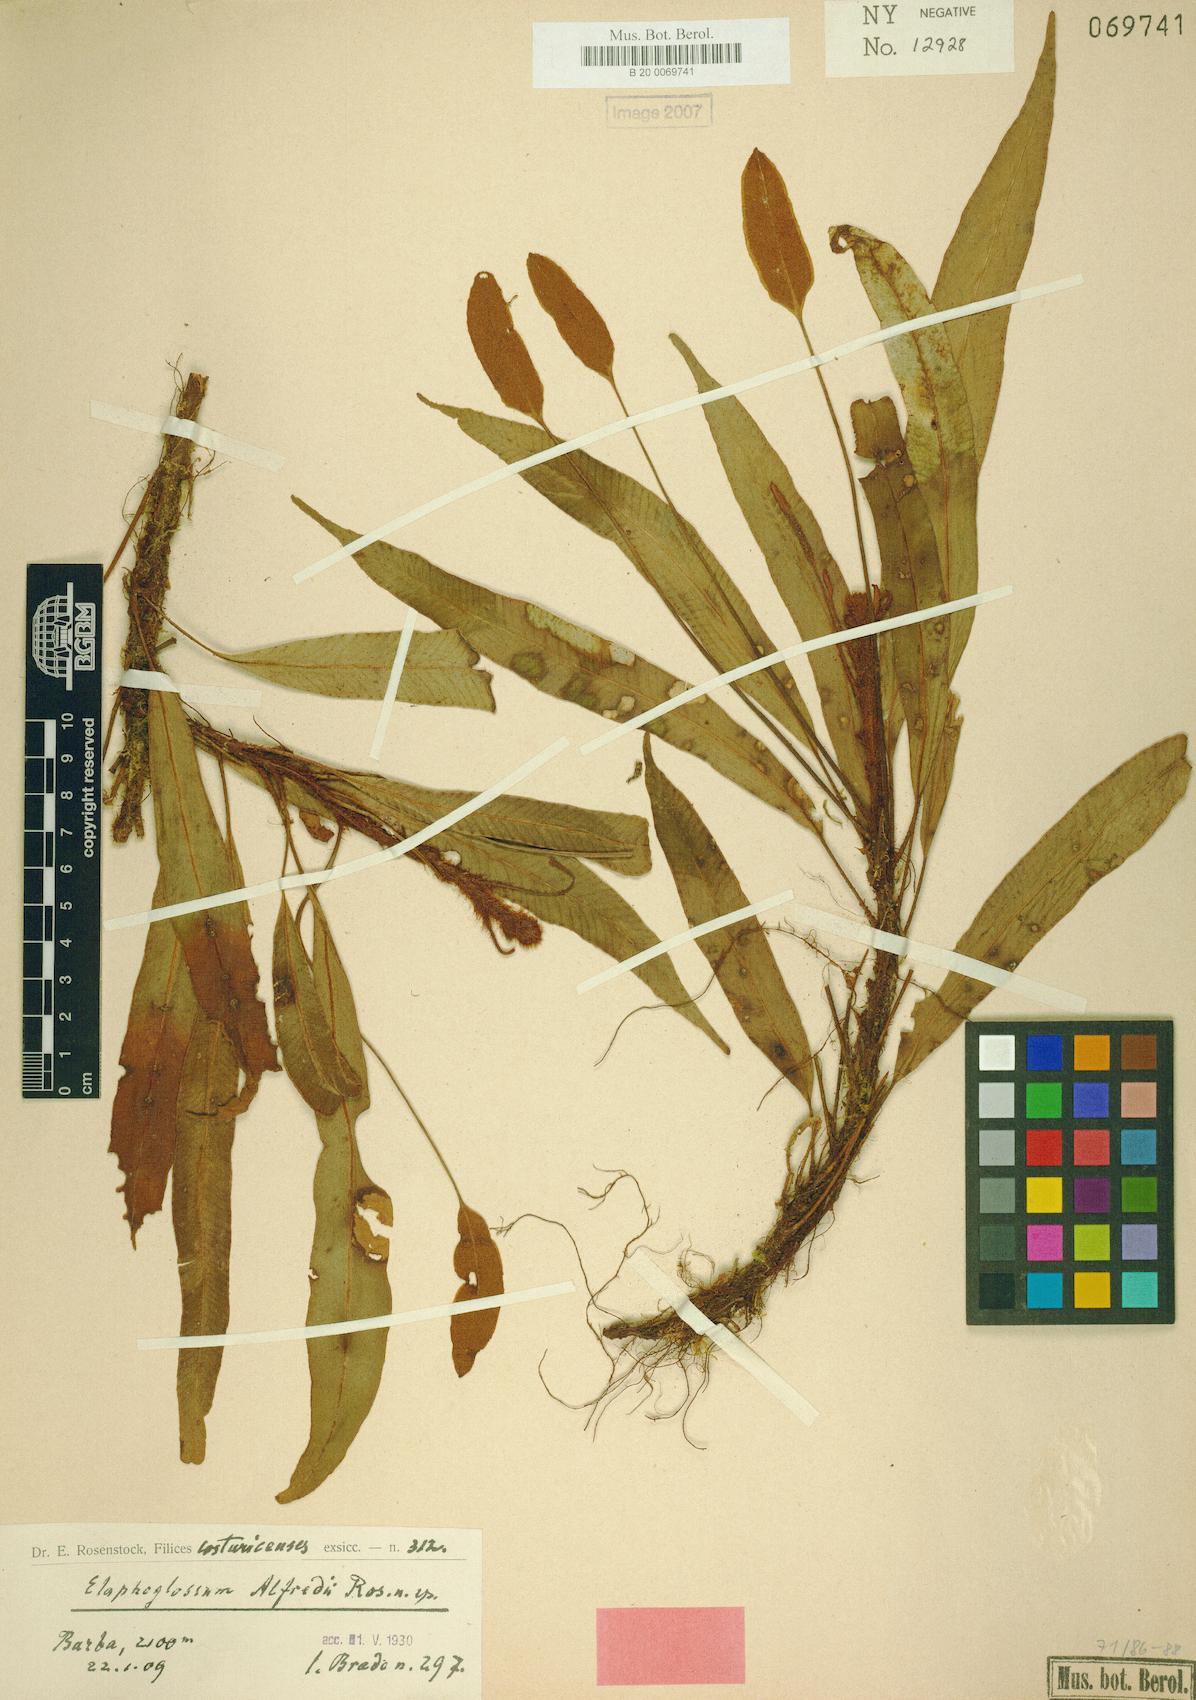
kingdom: Plantae
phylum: Tracheophyta
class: Polypodiopsida
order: Polypodiales
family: Dryopteridaceae
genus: Elaphoglossum
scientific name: Elaphoglossum alfredii
